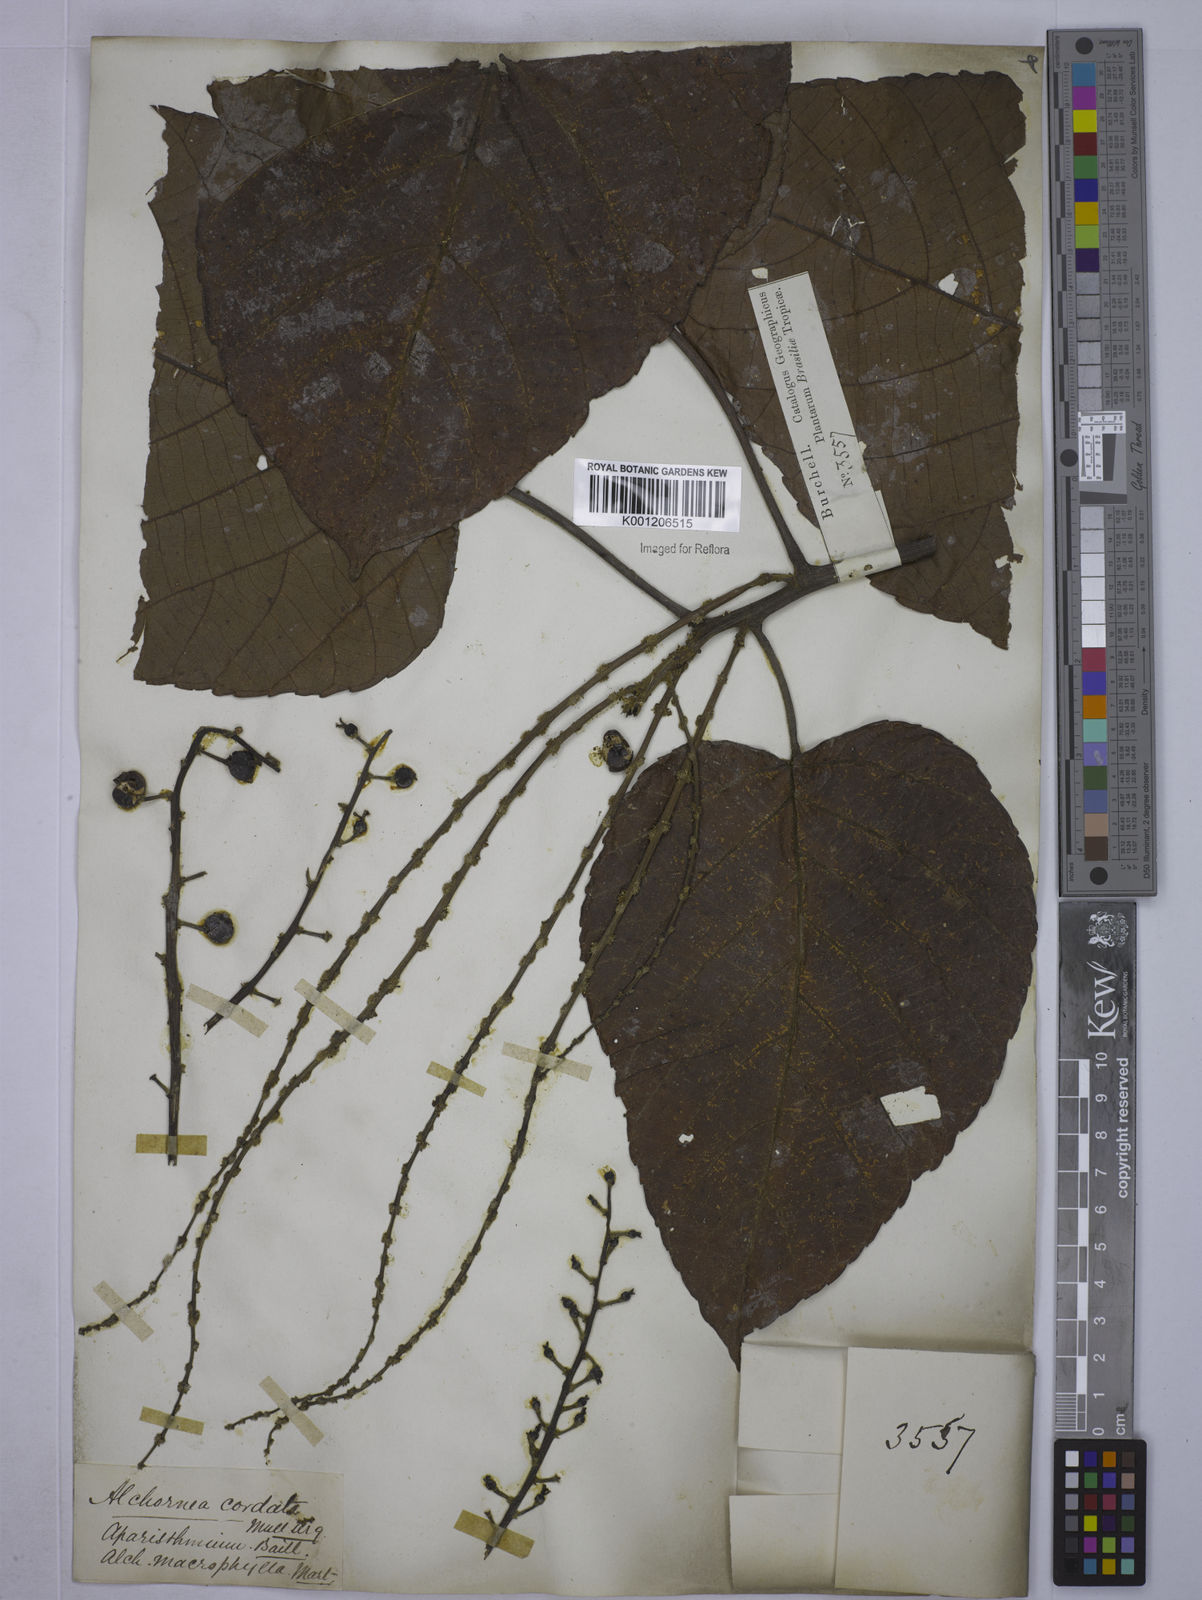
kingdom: Plantae
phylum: Tracheophyta
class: Magnoliopsida
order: Malpighiales
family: Euphorbiaceae
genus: Aparisthmium
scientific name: Aparisthmium cordatum
